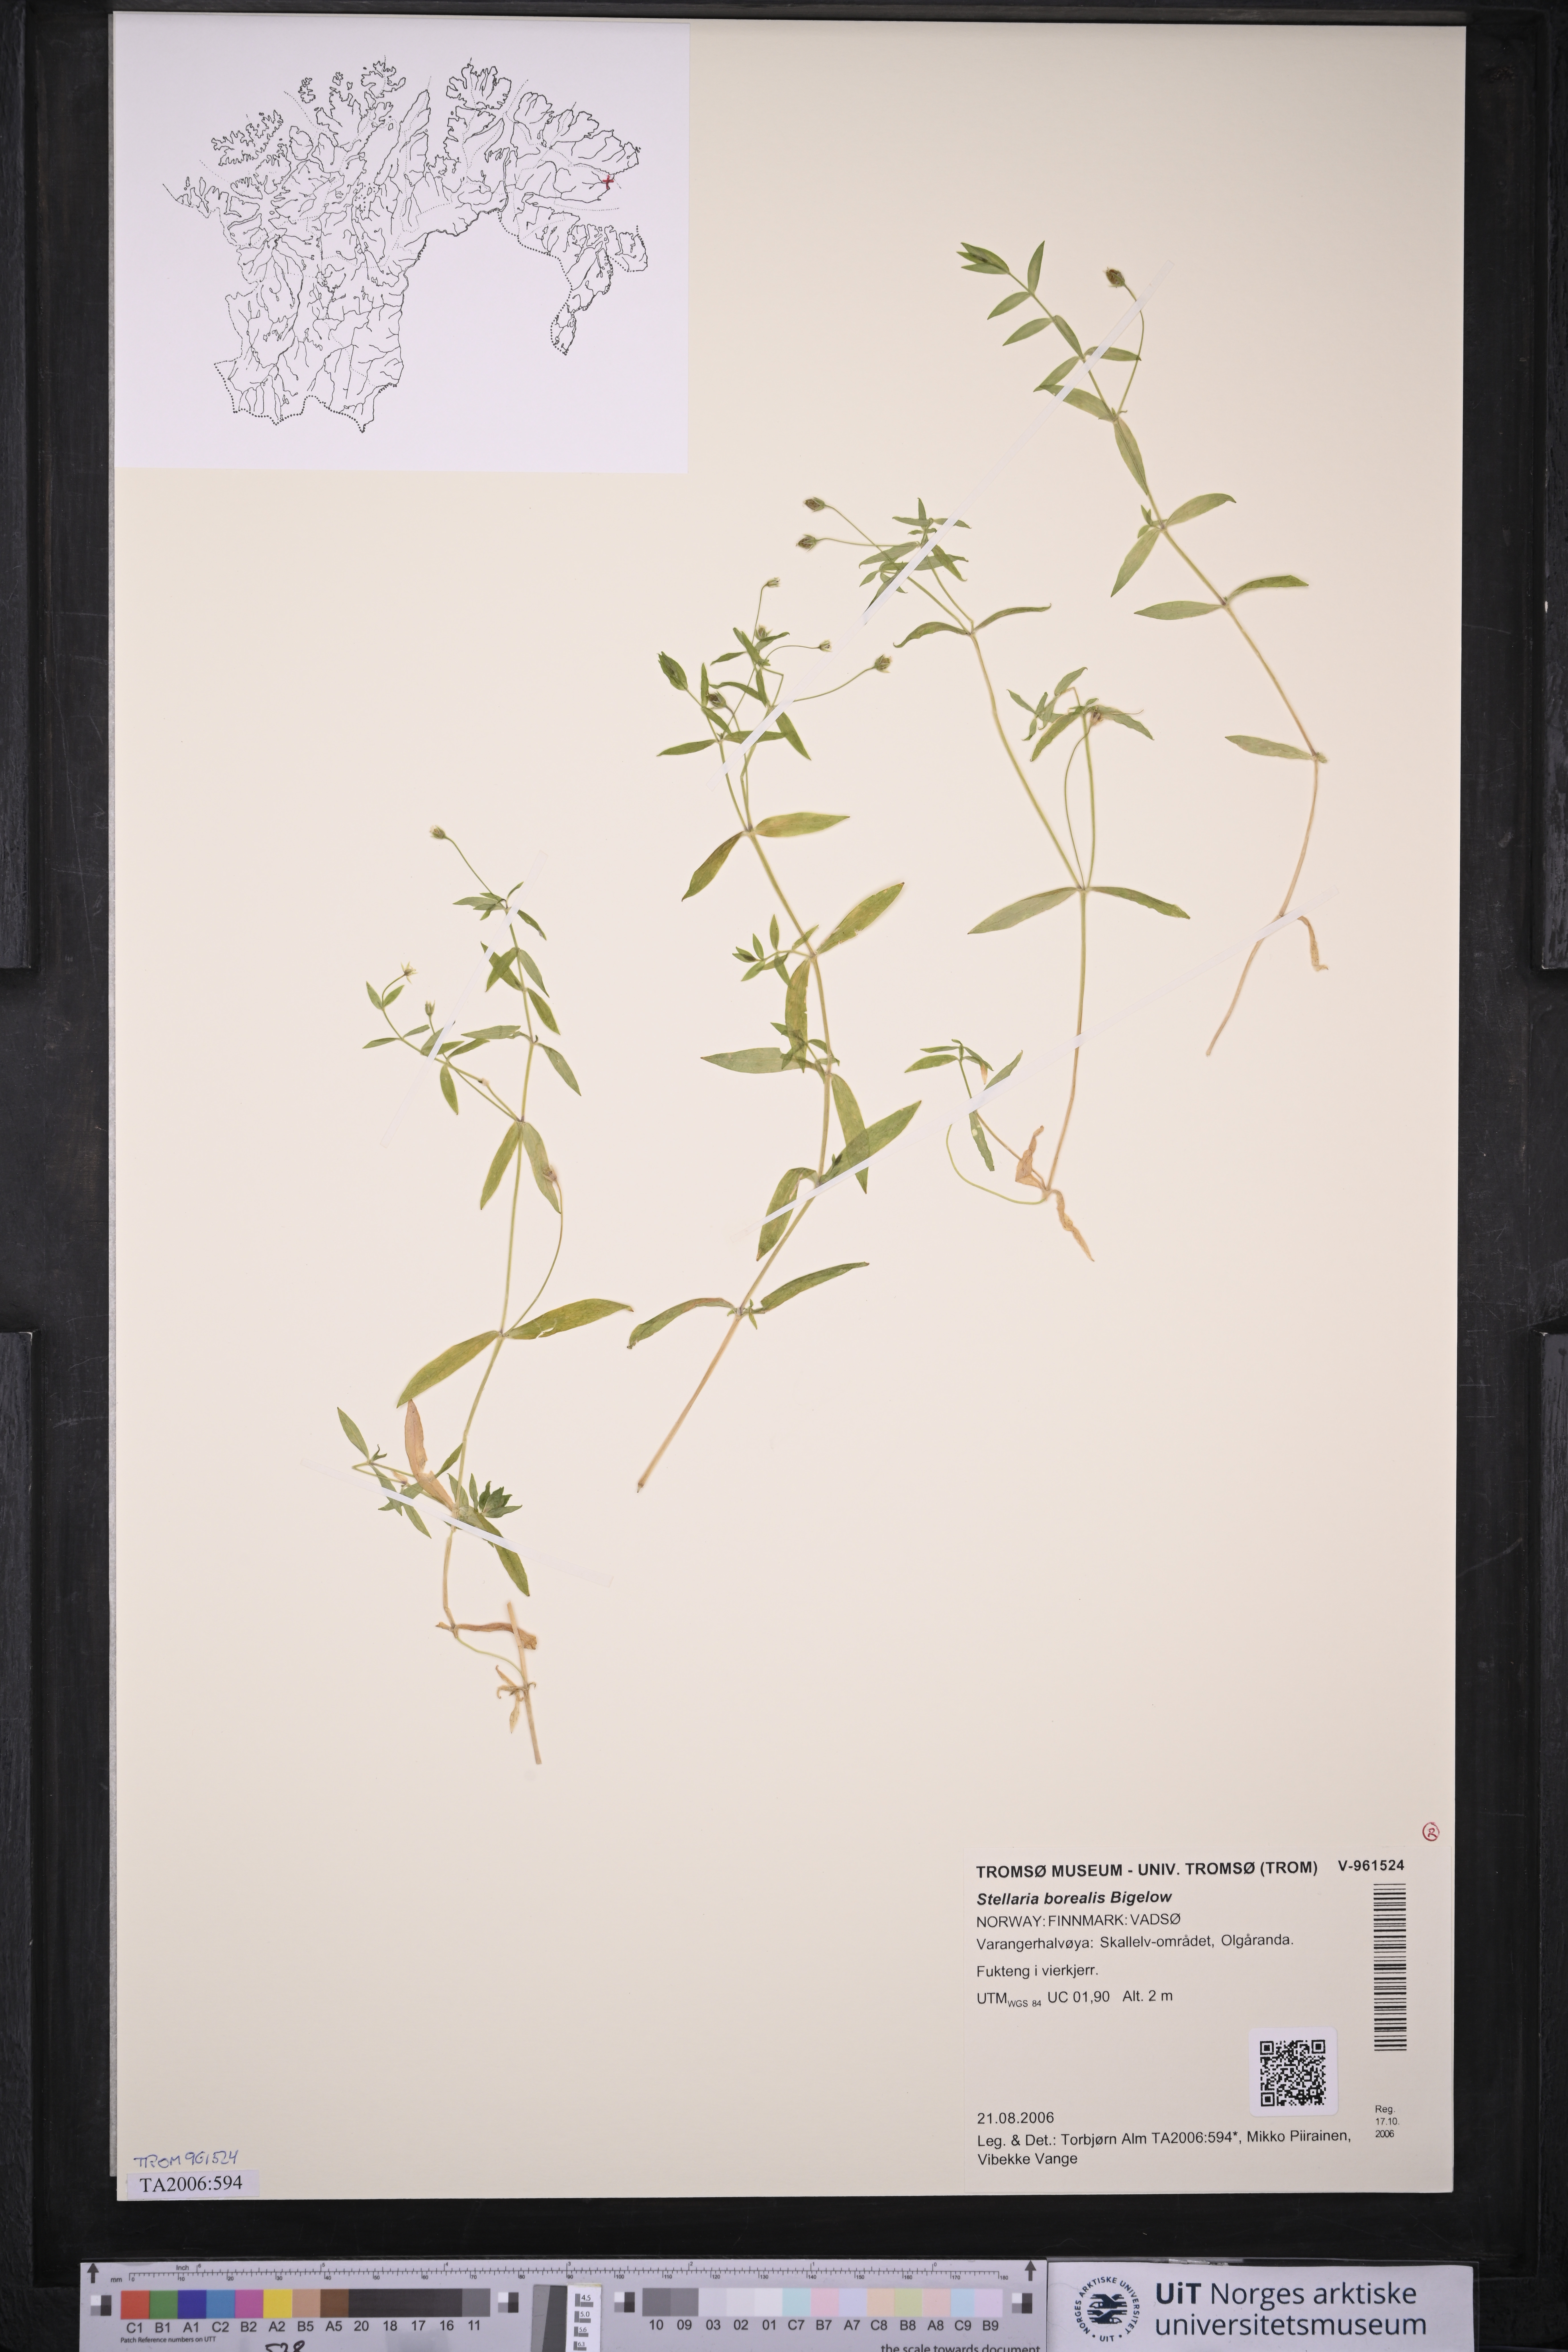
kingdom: Plantae
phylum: Tracheophyta
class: Magnoliopsida
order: Caryophyllales
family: Caryophyllaceae
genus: Stellaria
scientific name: Stellaria borealis
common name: Boreal starwort
